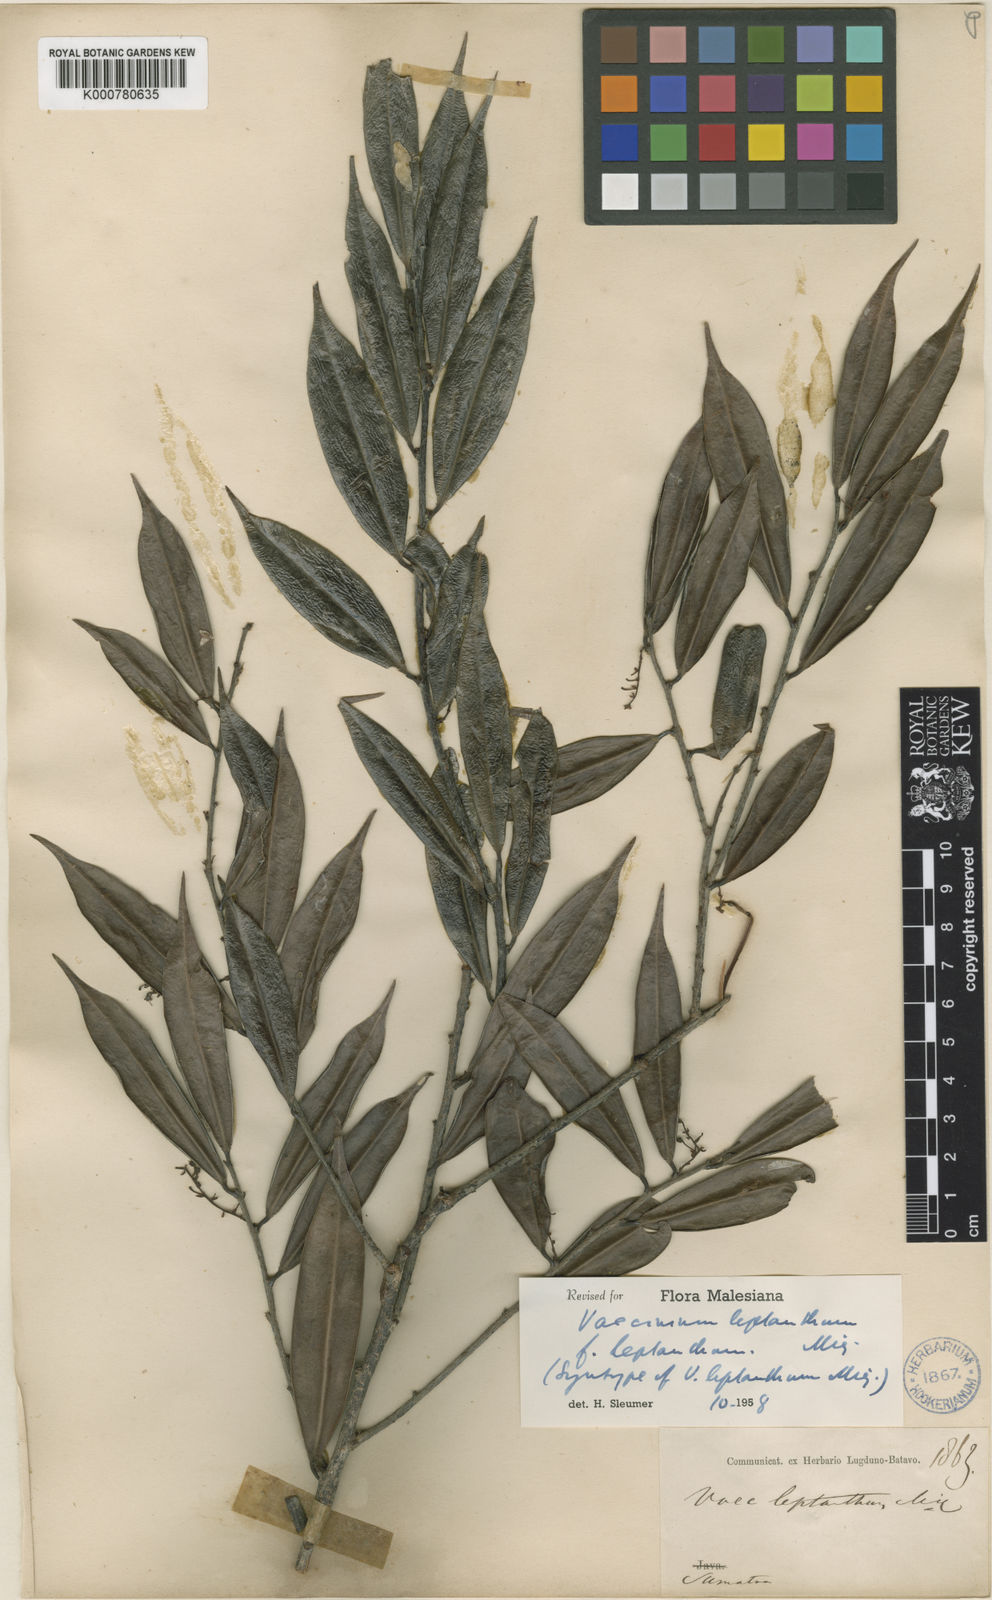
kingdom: Plantae
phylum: Tracheophyta
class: Magnoliopsida
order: Ericales
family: Ericaceae
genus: Rigiolepis
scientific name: Rigiolepis leptantha
